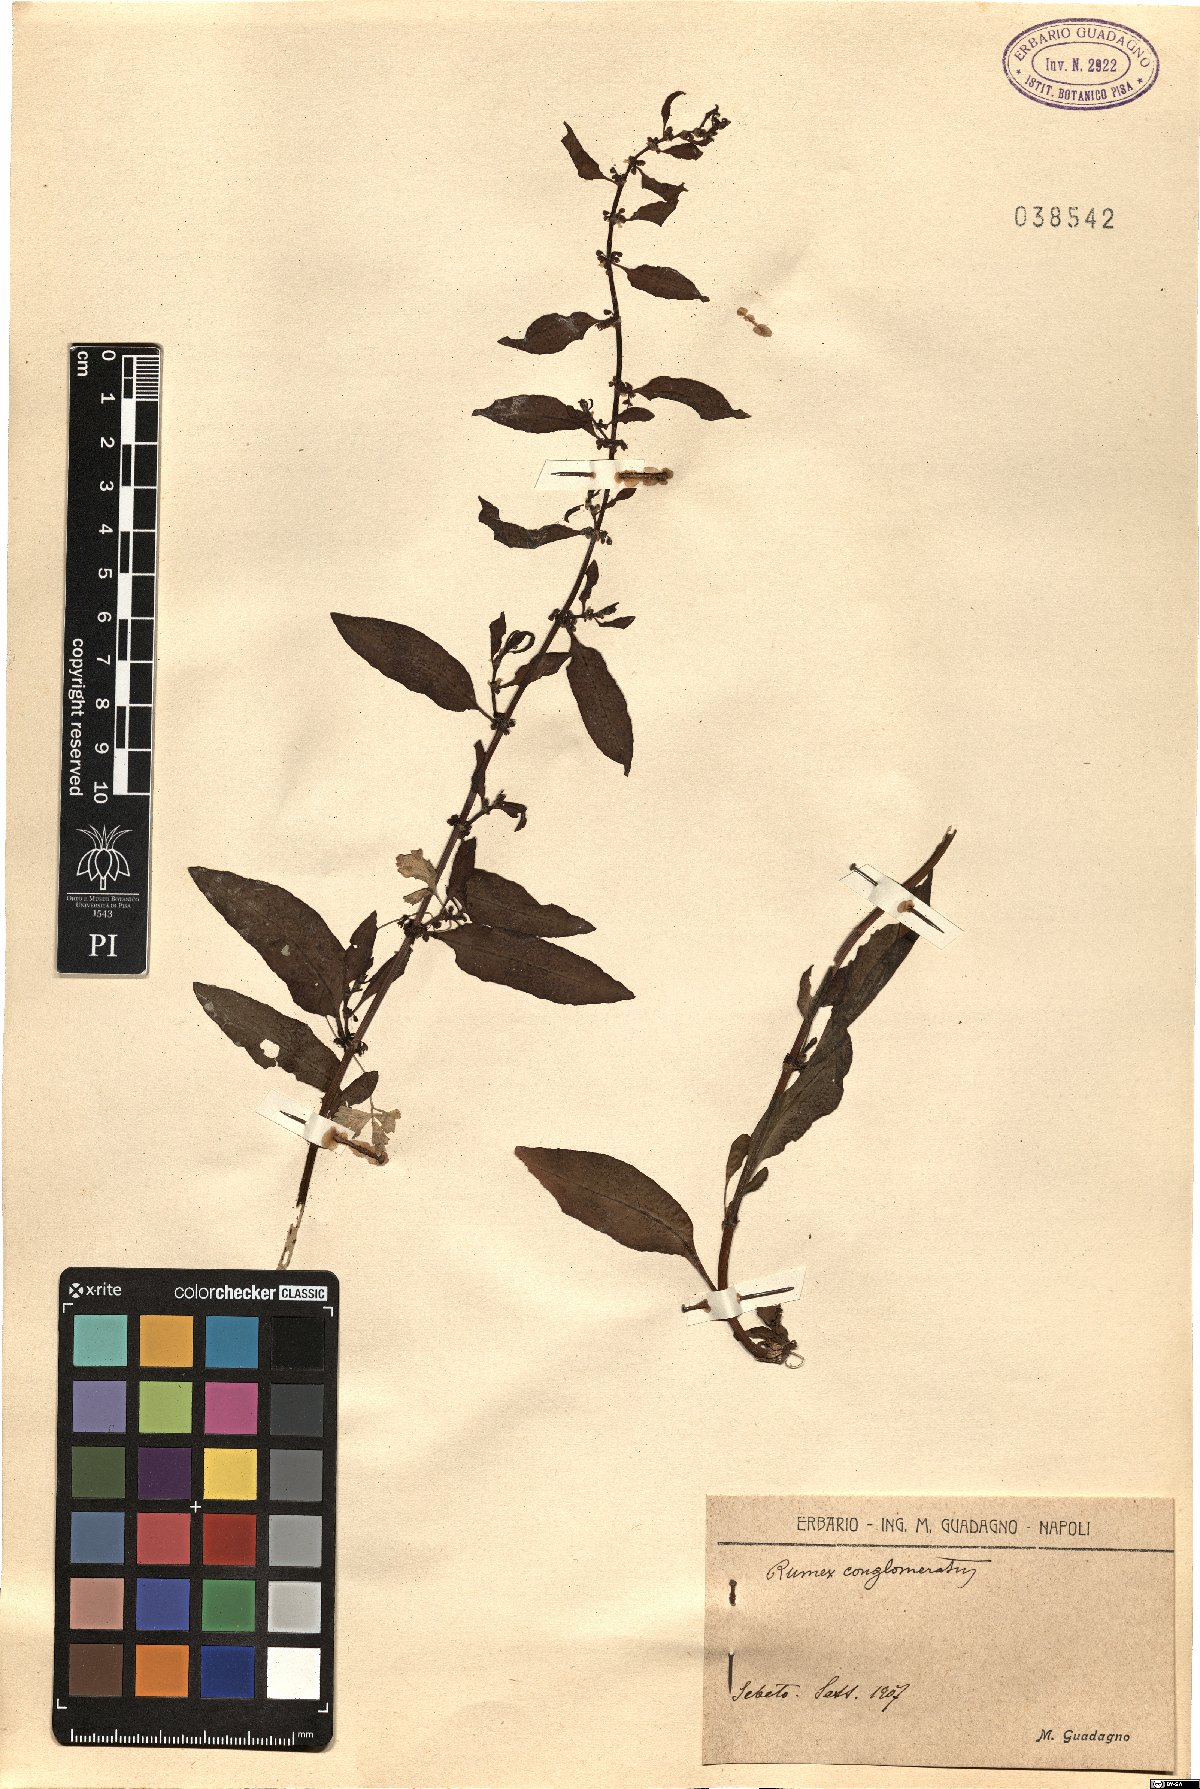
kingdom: Plantae
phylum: Tracheophyta
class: Magnoliopsida
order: Caryophyllales
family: Polygonaceae
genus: Rumex
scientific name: Rumex conglomeratus
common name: Clustered dock
